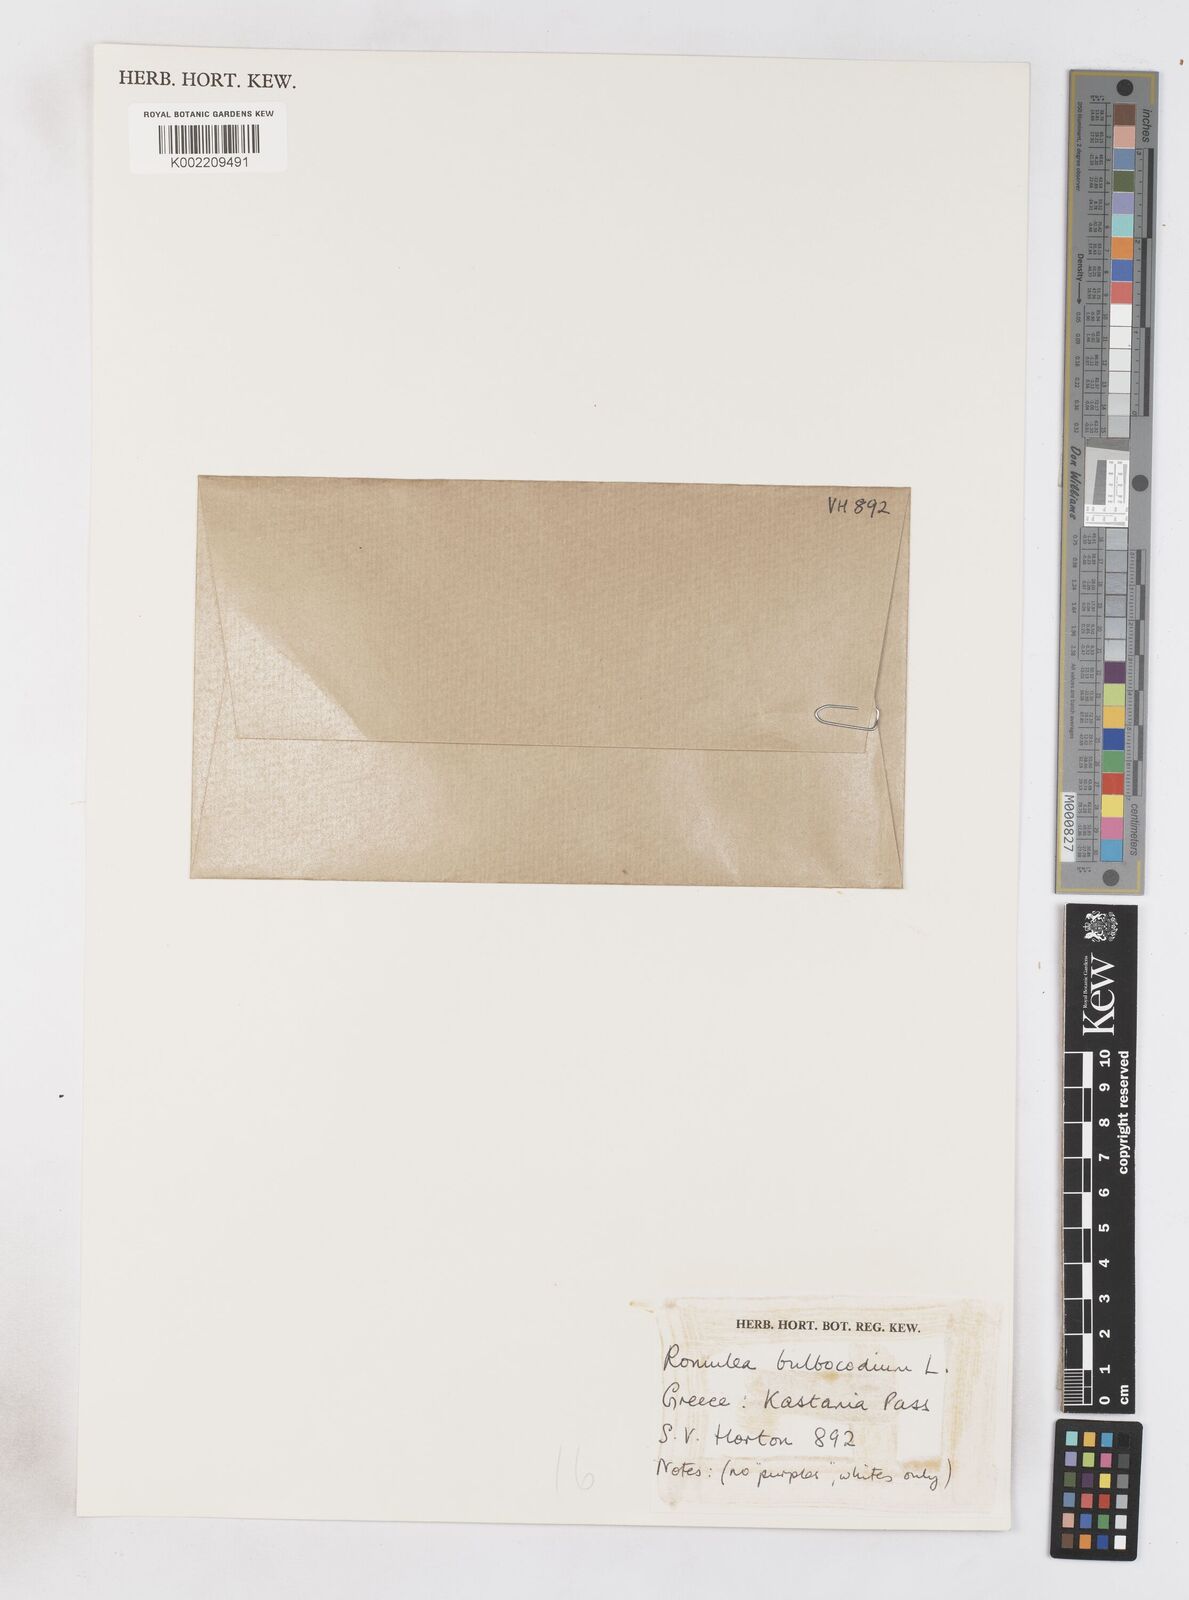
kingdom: Plantae
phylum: Tracheophyta
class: Liliopsida
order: Asparagales
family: Iridaceae
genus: Romulea
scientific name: Romulea bulbocodium
